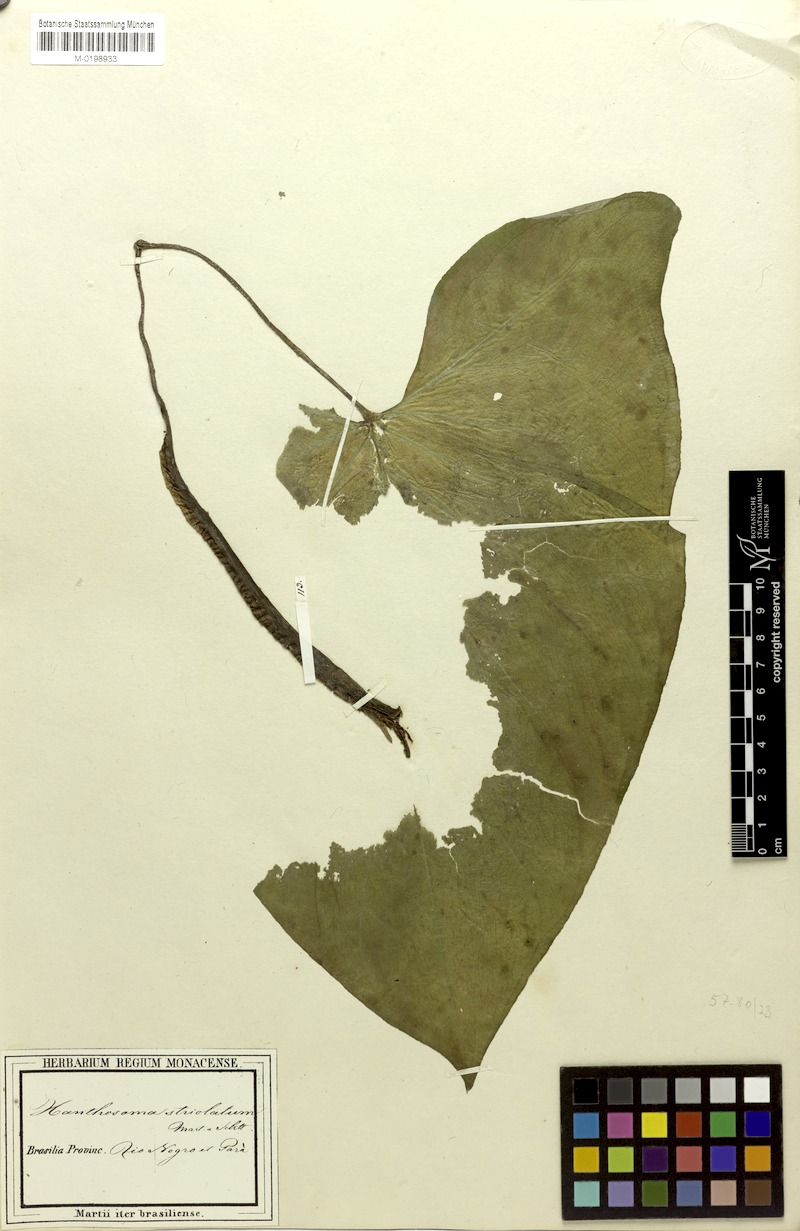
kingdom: Plantae
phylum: Tracheophyta
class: Liliopsida
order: Alismatales
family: Araceae
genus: Xanthosoma
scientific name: Xanthosoma striolatum
